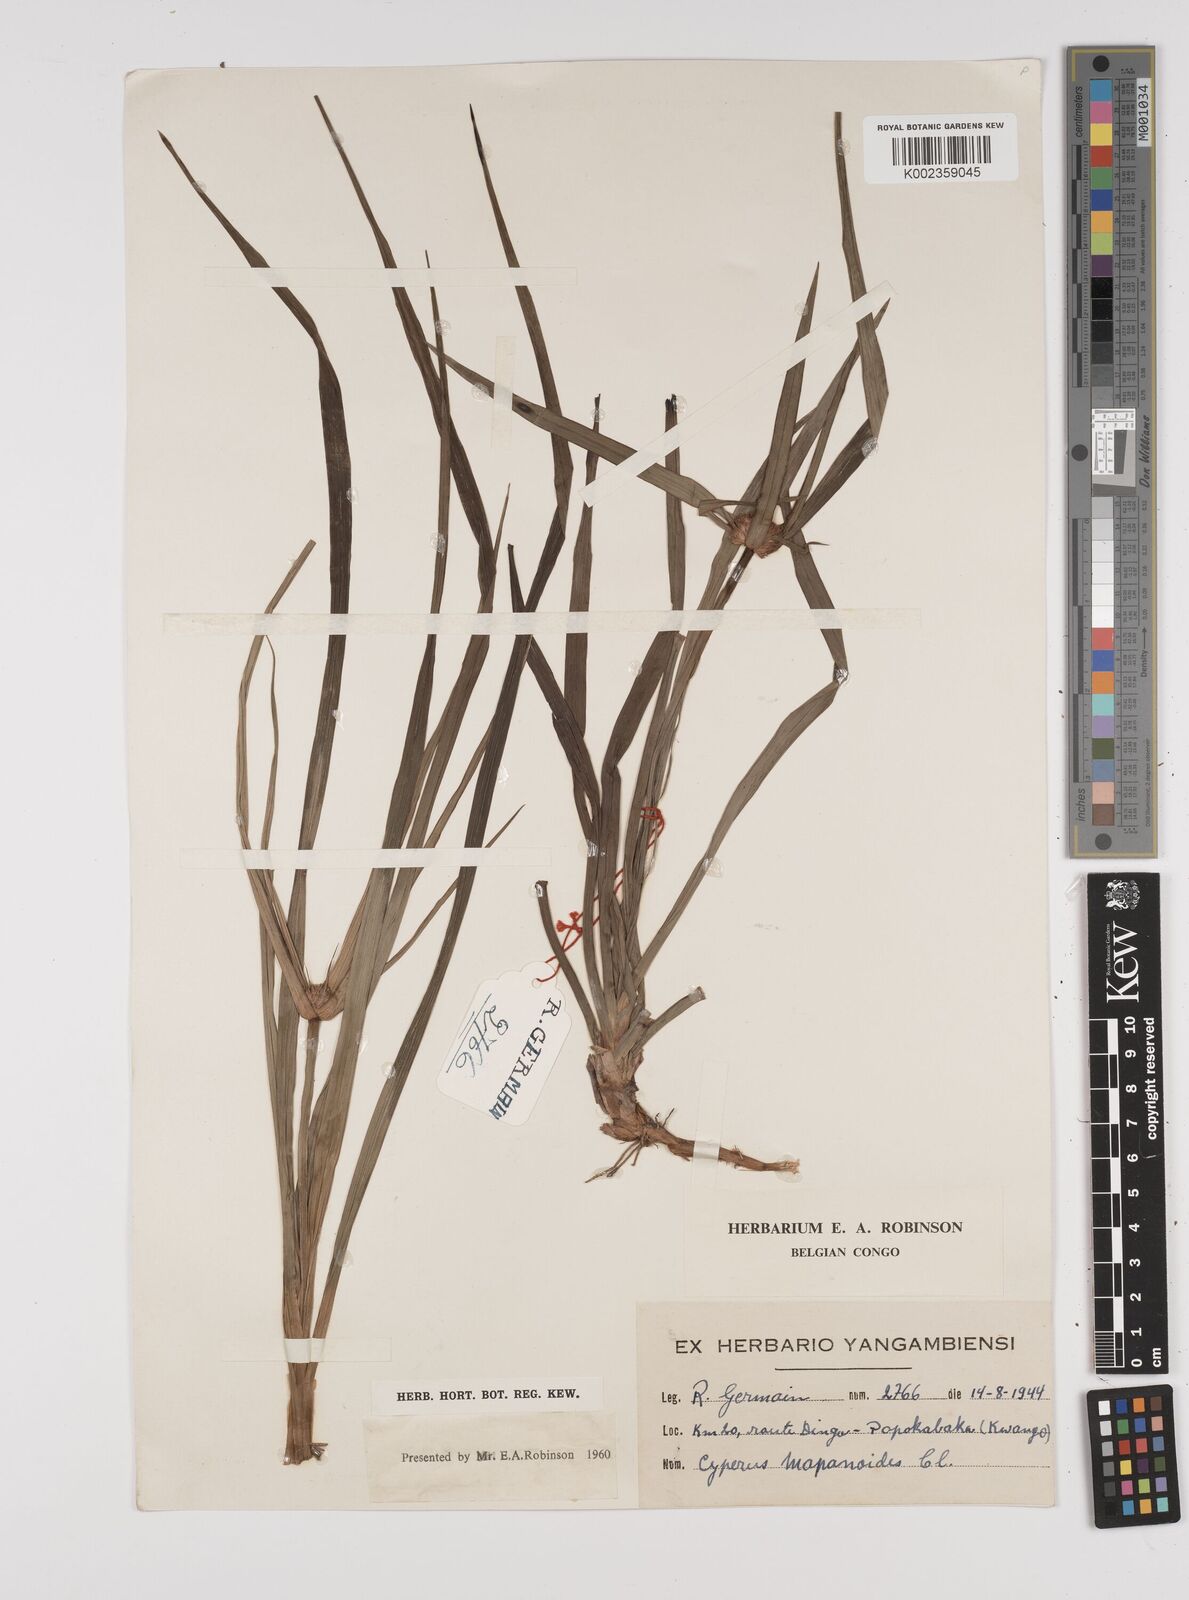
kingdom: Plantae
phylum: Tracheophyta
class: Liliopsida
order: Poales
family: Cyperaceae
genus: Cyperus
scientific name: Cyperus mapanioides
